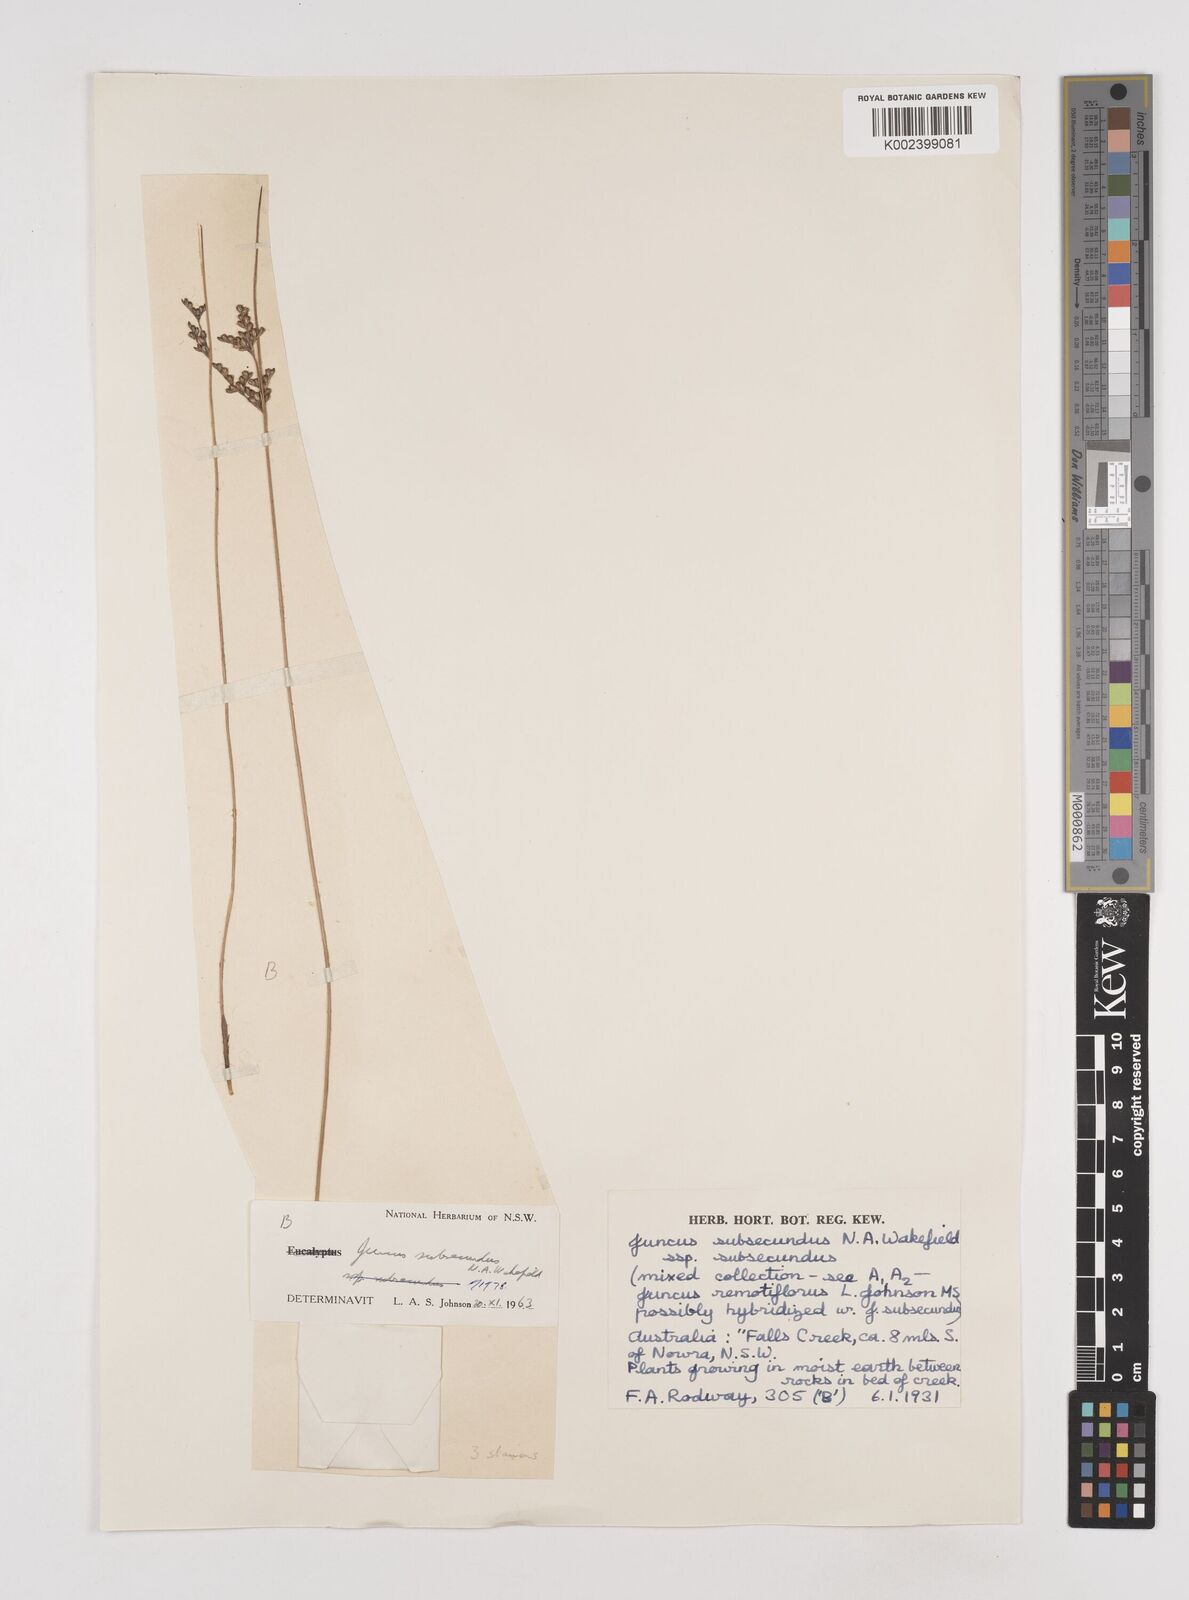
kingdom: Plantae
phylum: Tracheophyta
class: Liliopsida
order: Poales
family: Juncaceae
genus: Juncus
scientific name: Juncus subsecundus
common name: Fingered rush
